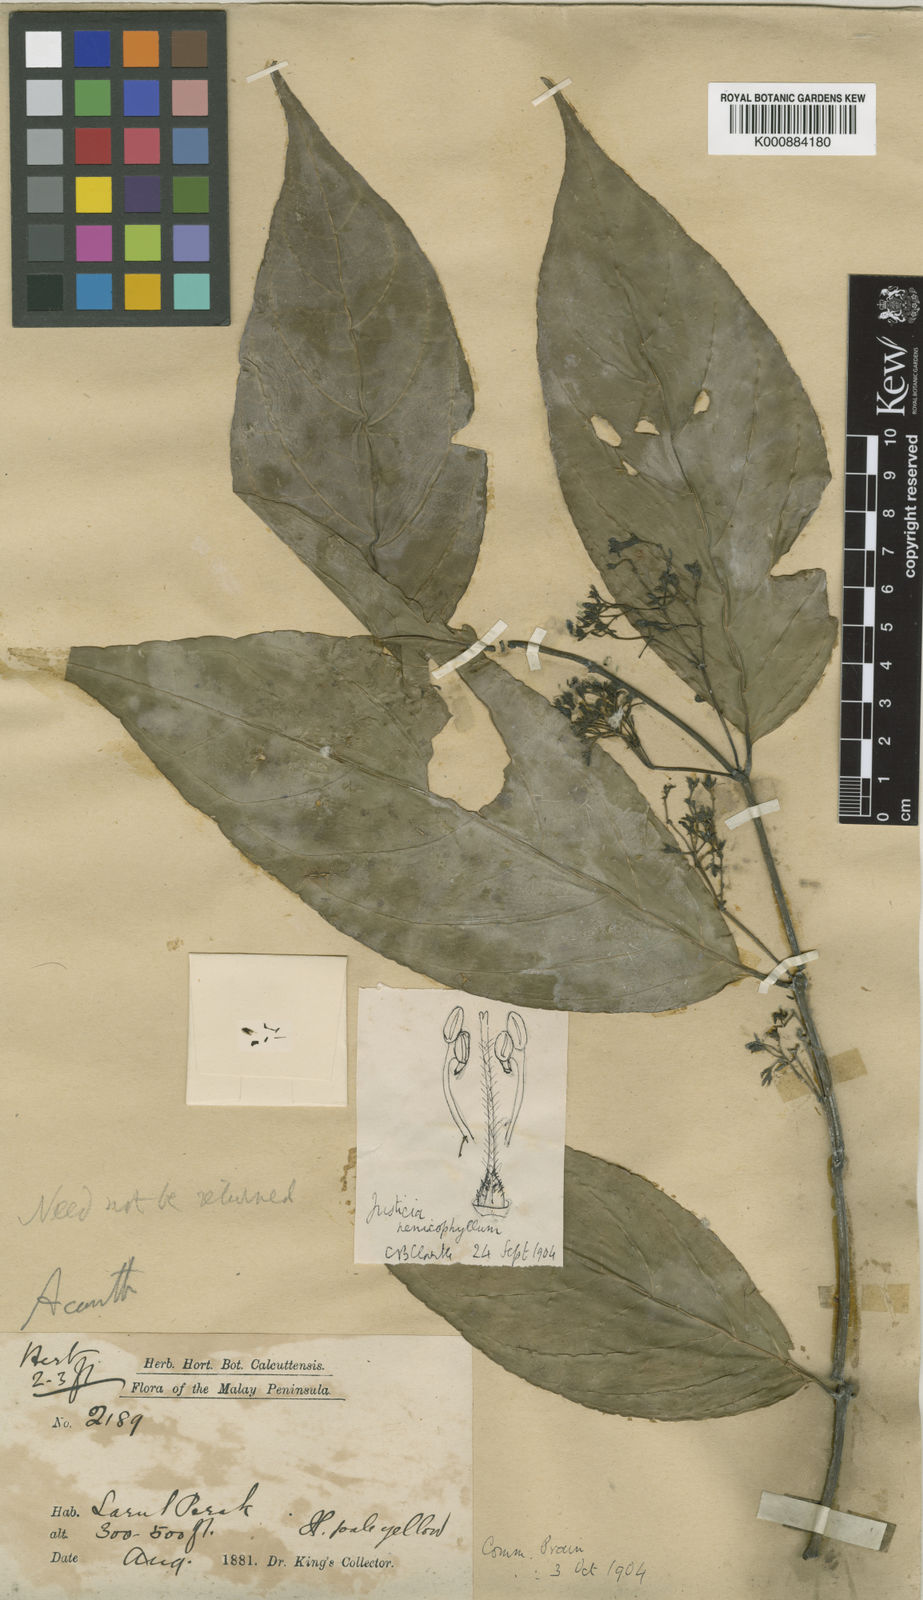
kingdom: Plantae
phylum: Tracheophyta
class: Magnoliopsida
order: Lamiales
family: Acanthaceae
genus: Justicia
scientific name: Justicia alternifolia
